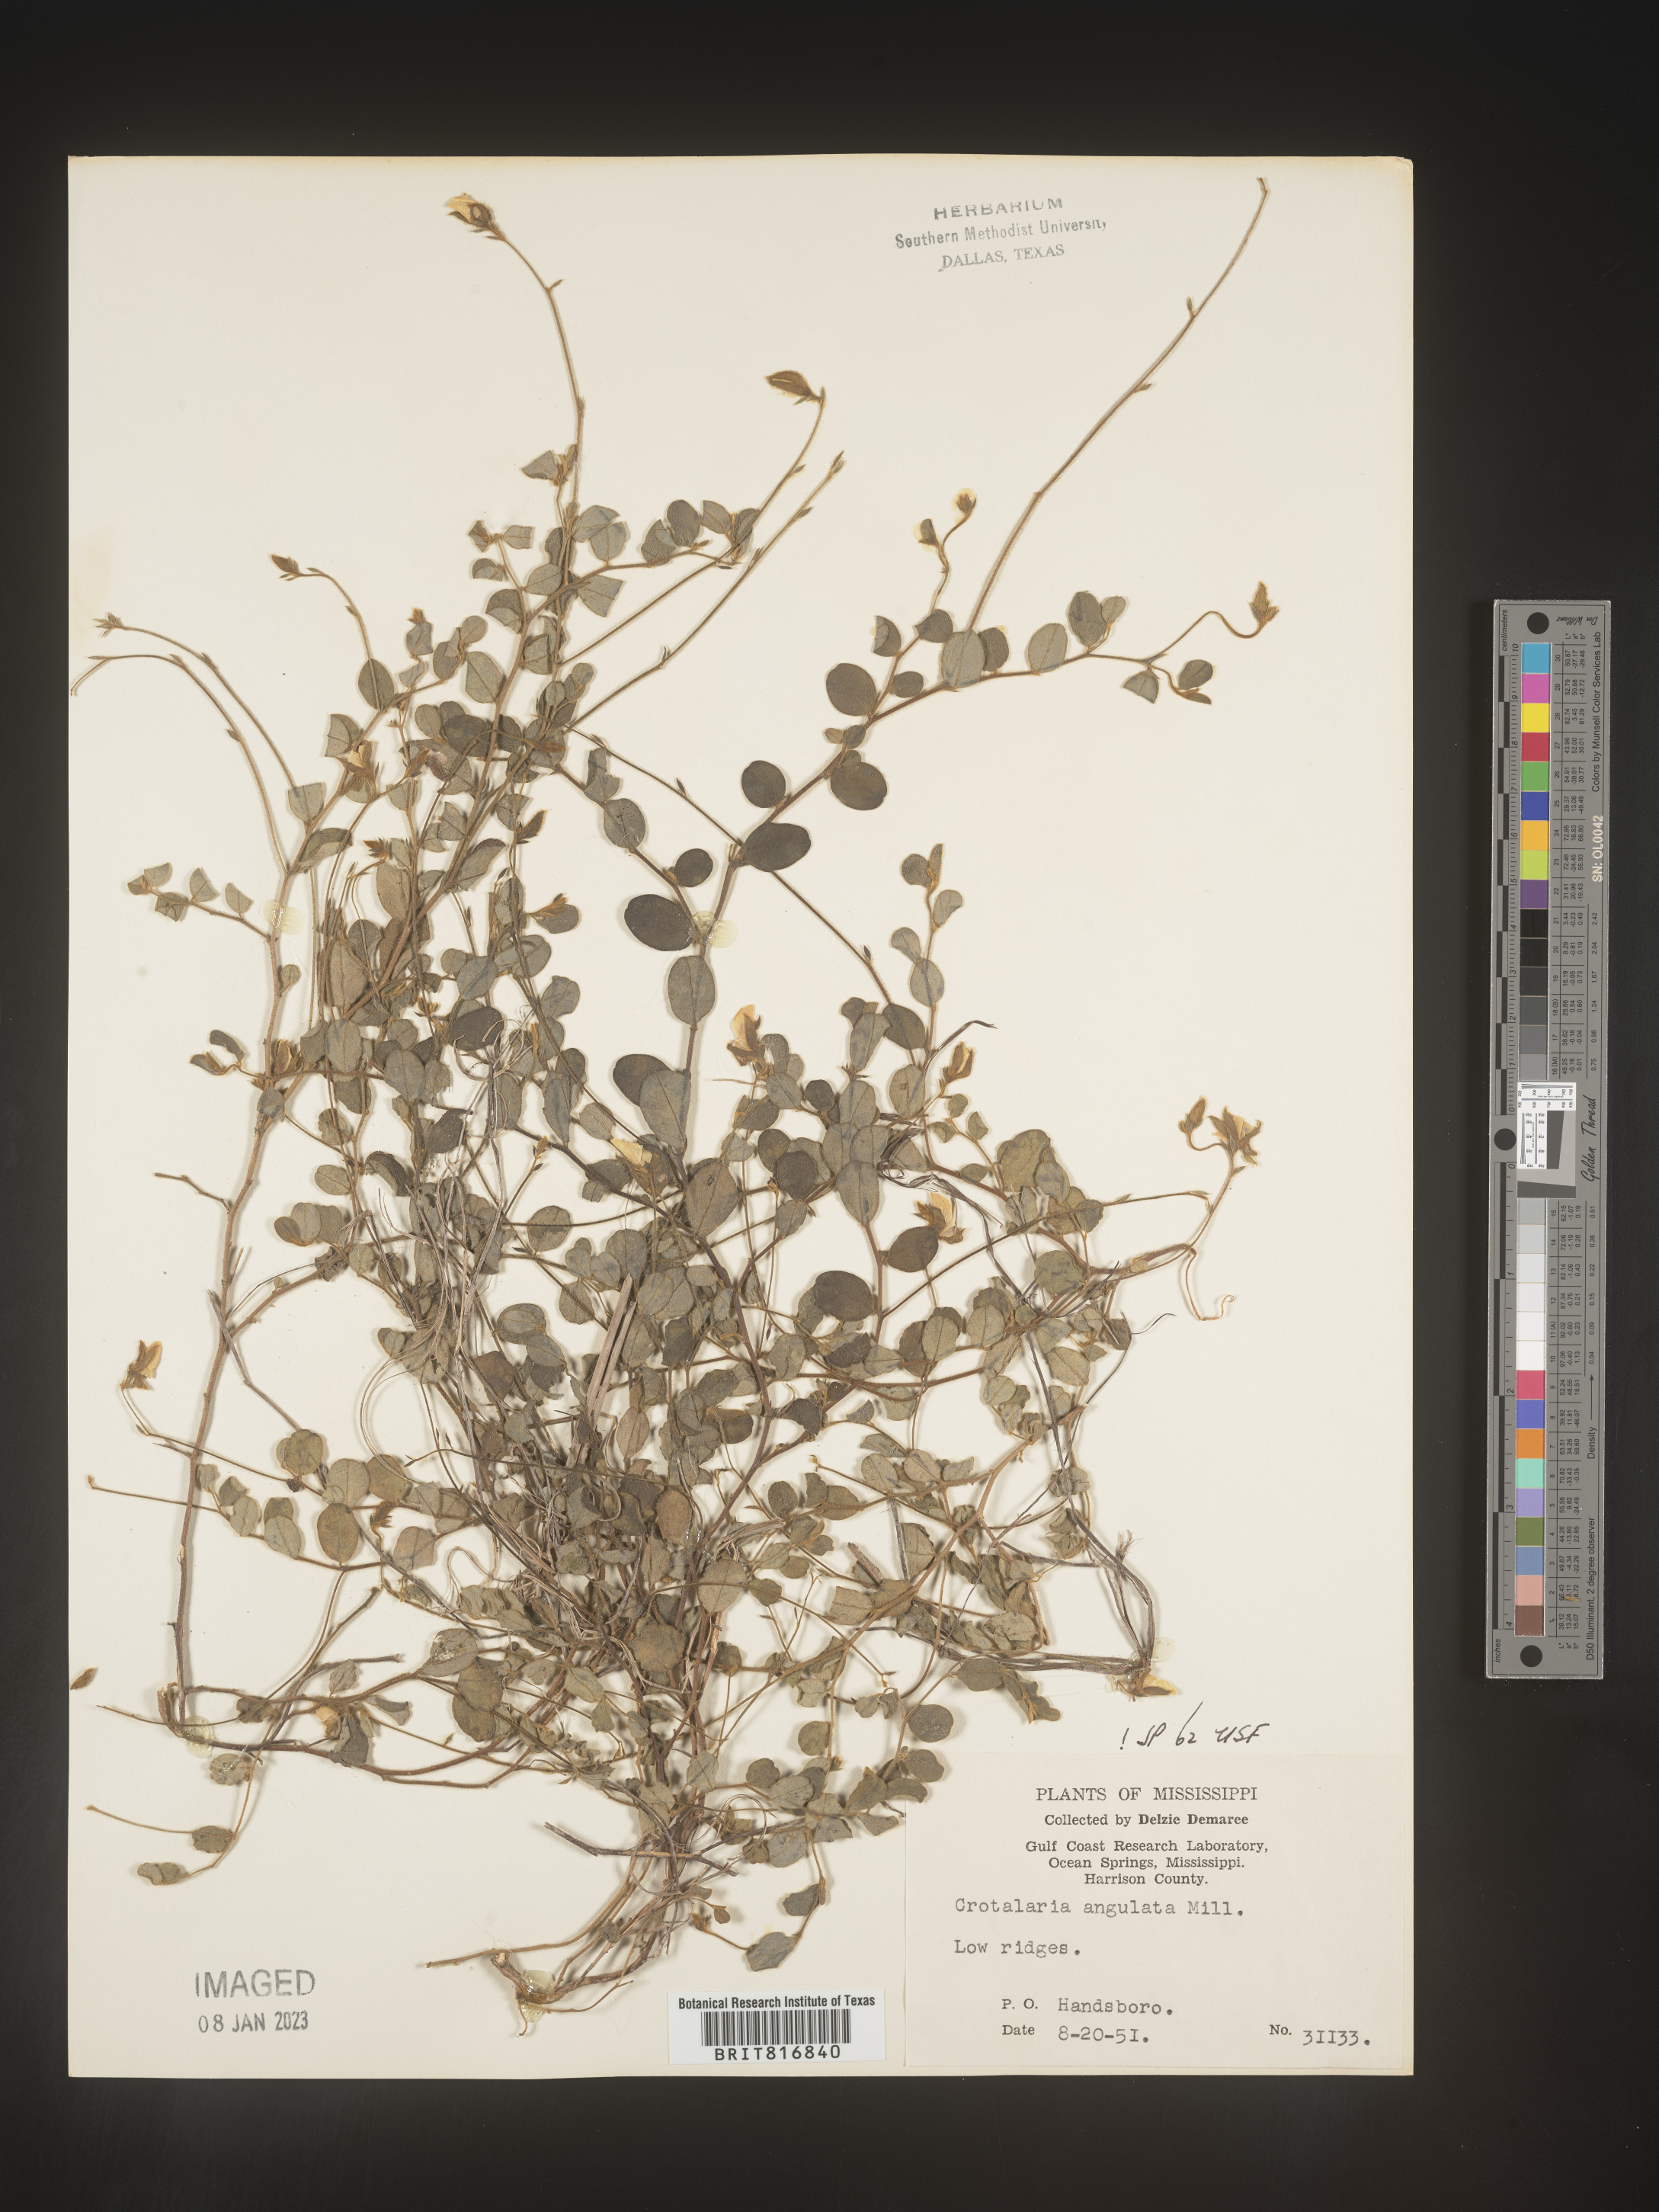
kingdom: Plantae
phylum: Tracheophyta
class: Magnoliopsida
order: Fabales
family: Fabaceae
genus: Crotalaria
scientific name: Crotalaria rotundifolia
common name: Prostrate rattlebox
